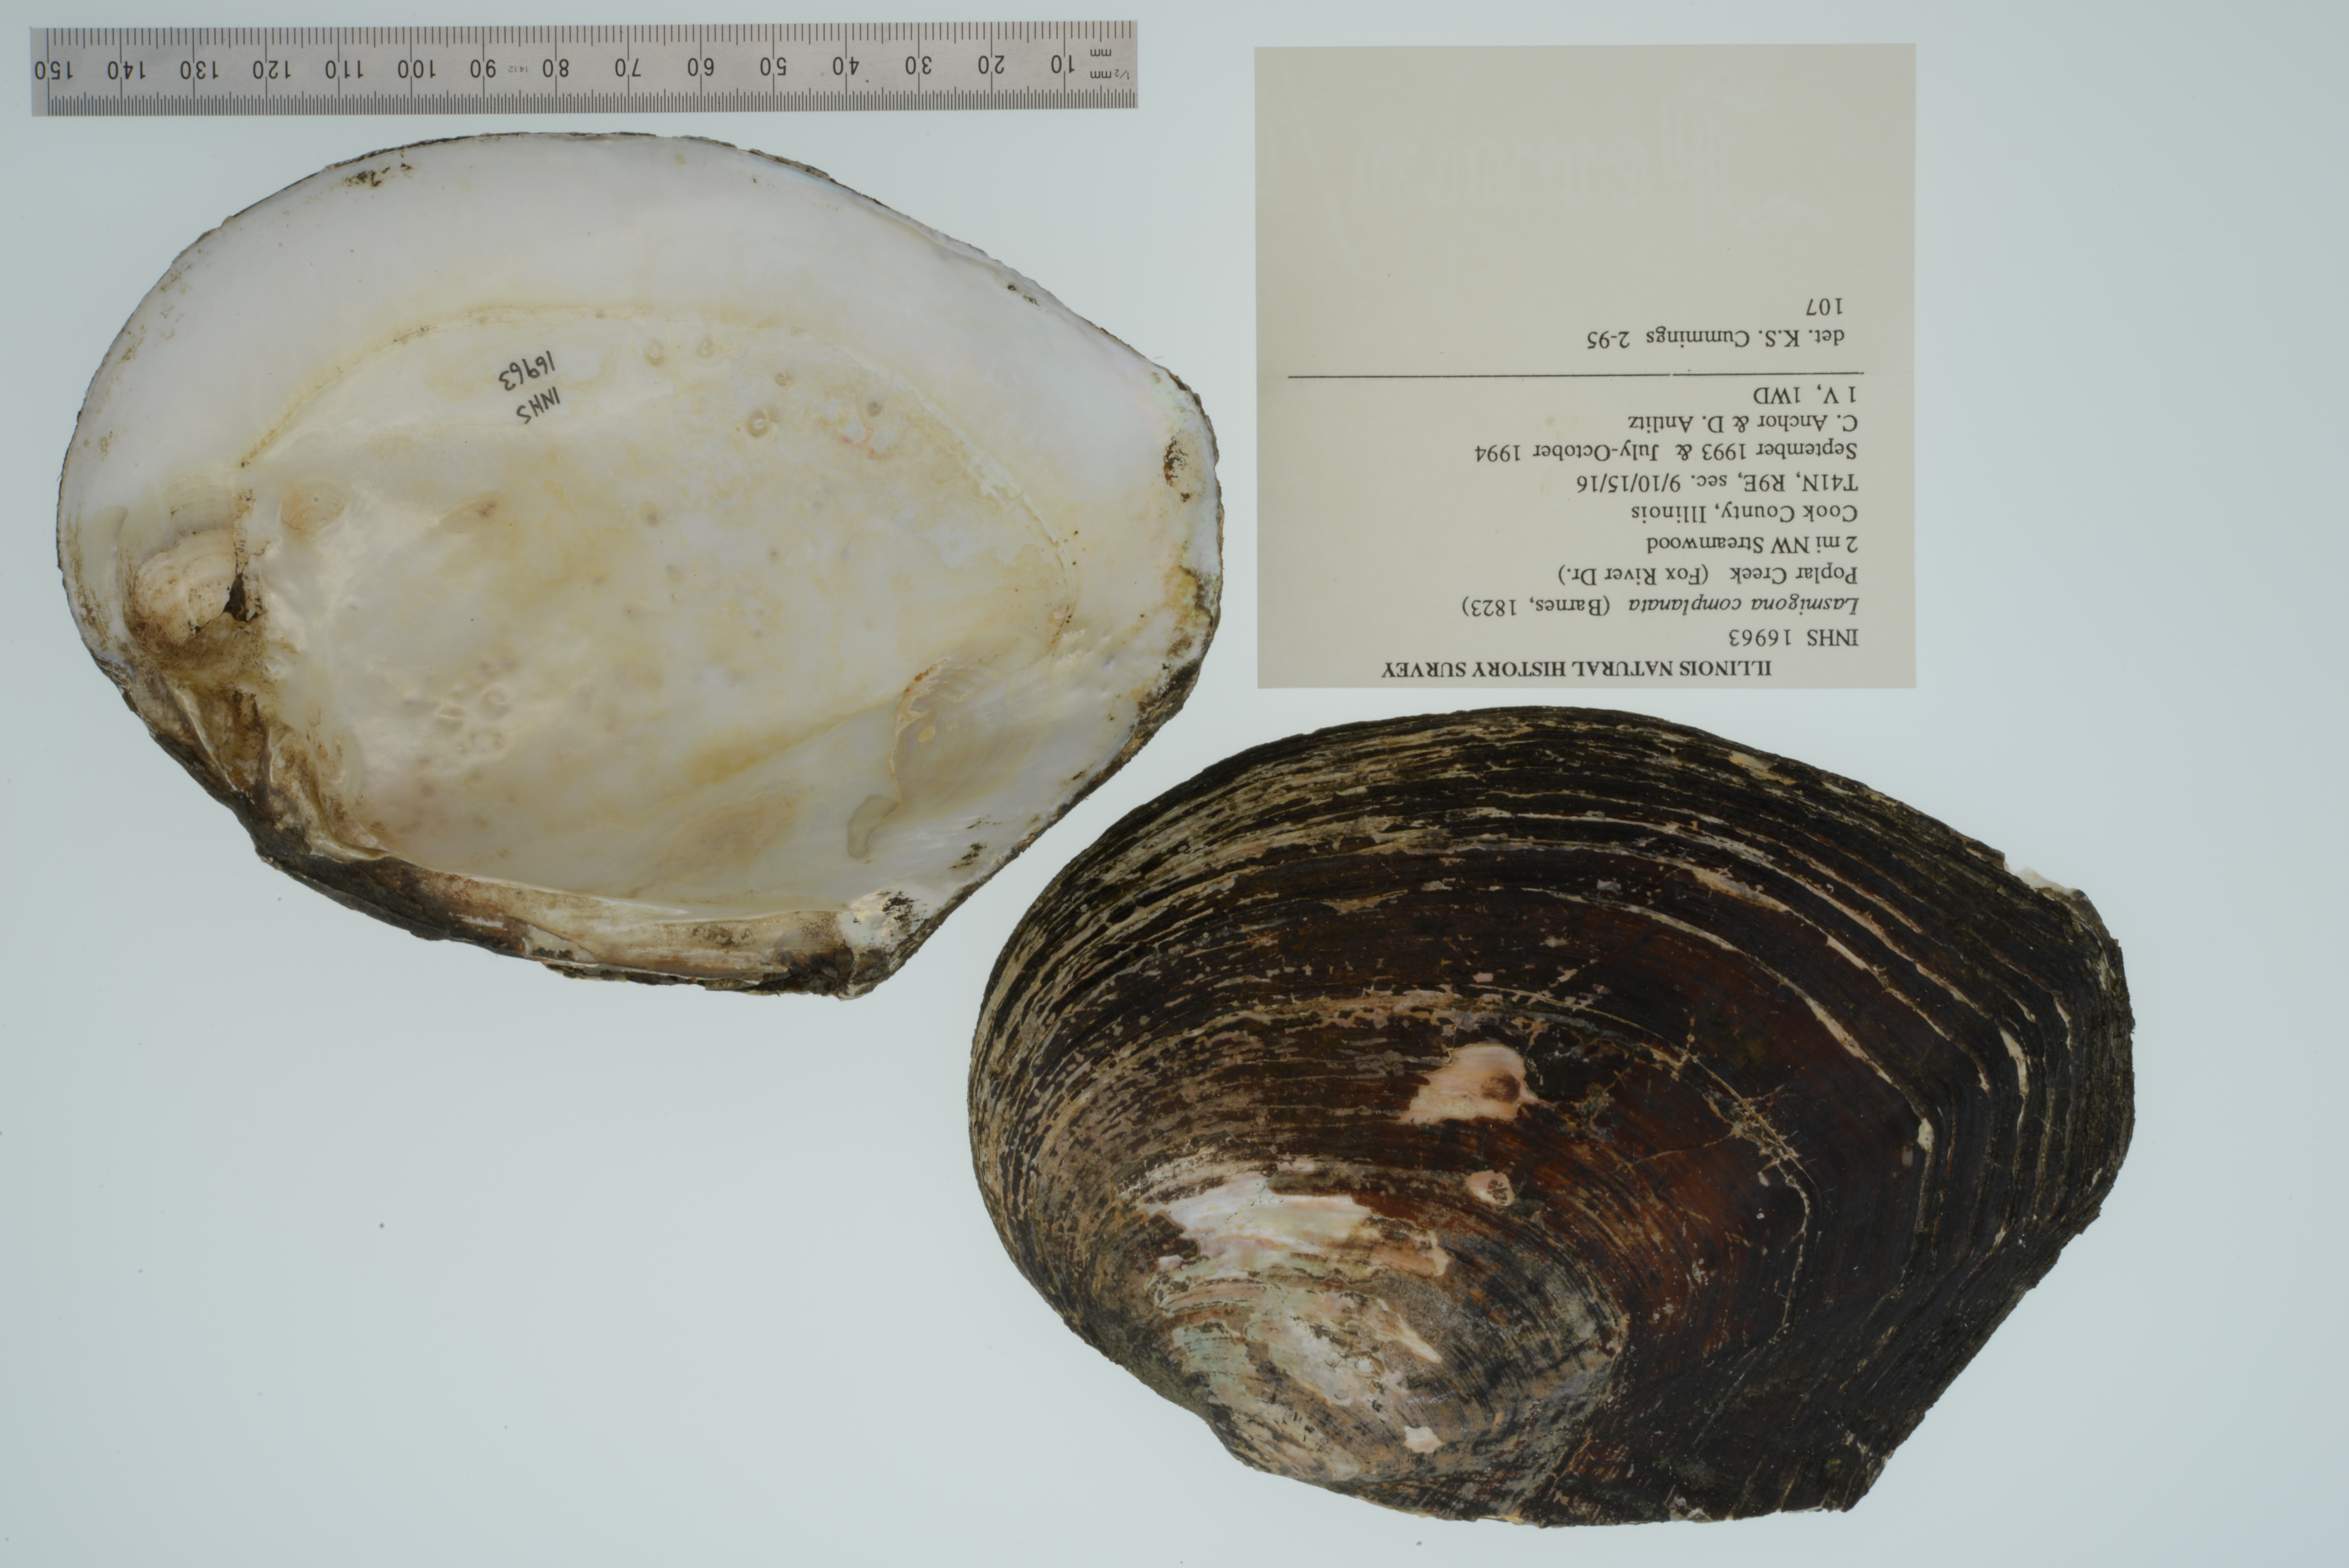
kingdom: Animalia
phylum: Mollusca
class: Bivalvia
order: Unionida
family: Unionidae
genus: Lasmigona
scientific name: Lasmigona complanata
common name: White heelsplitter
